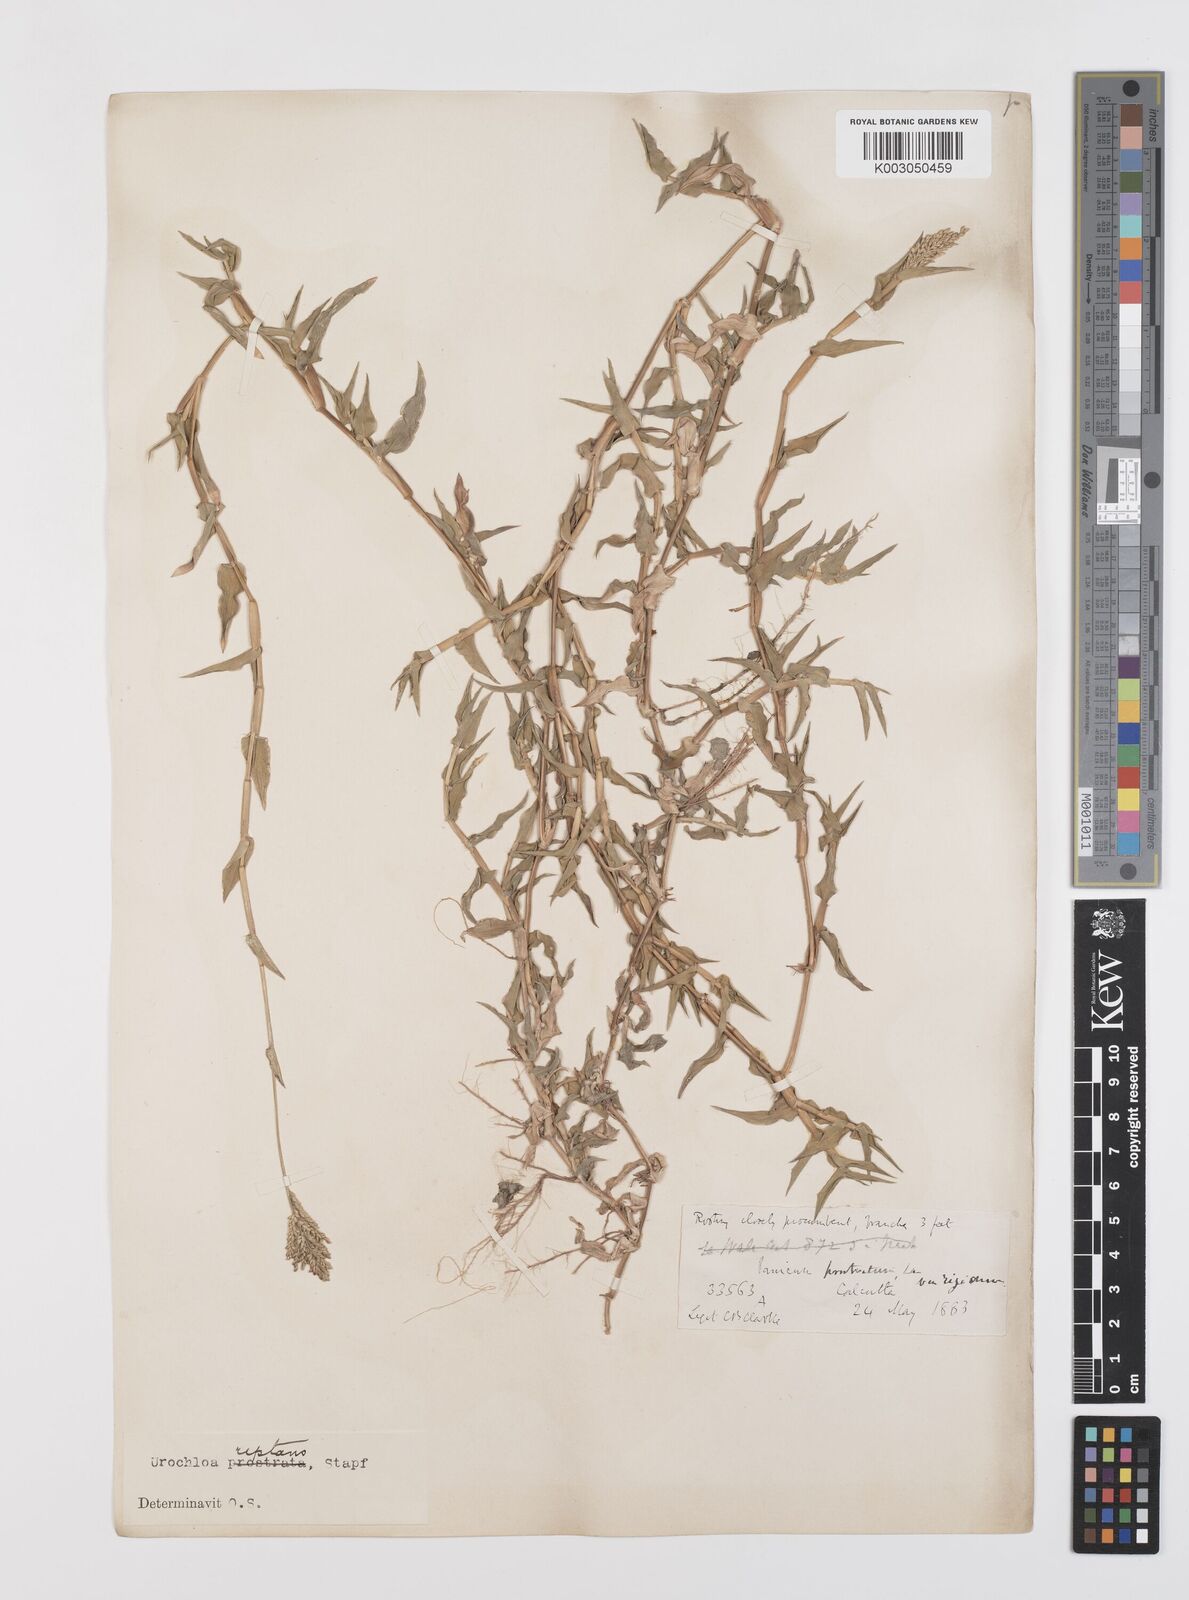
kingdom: Plantae
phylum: Tracheophyta
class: Liliopsida
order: Poales
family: Poaceae
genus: Urochloa
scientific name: Urochloa reptans
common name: Sprawling signalgrass
